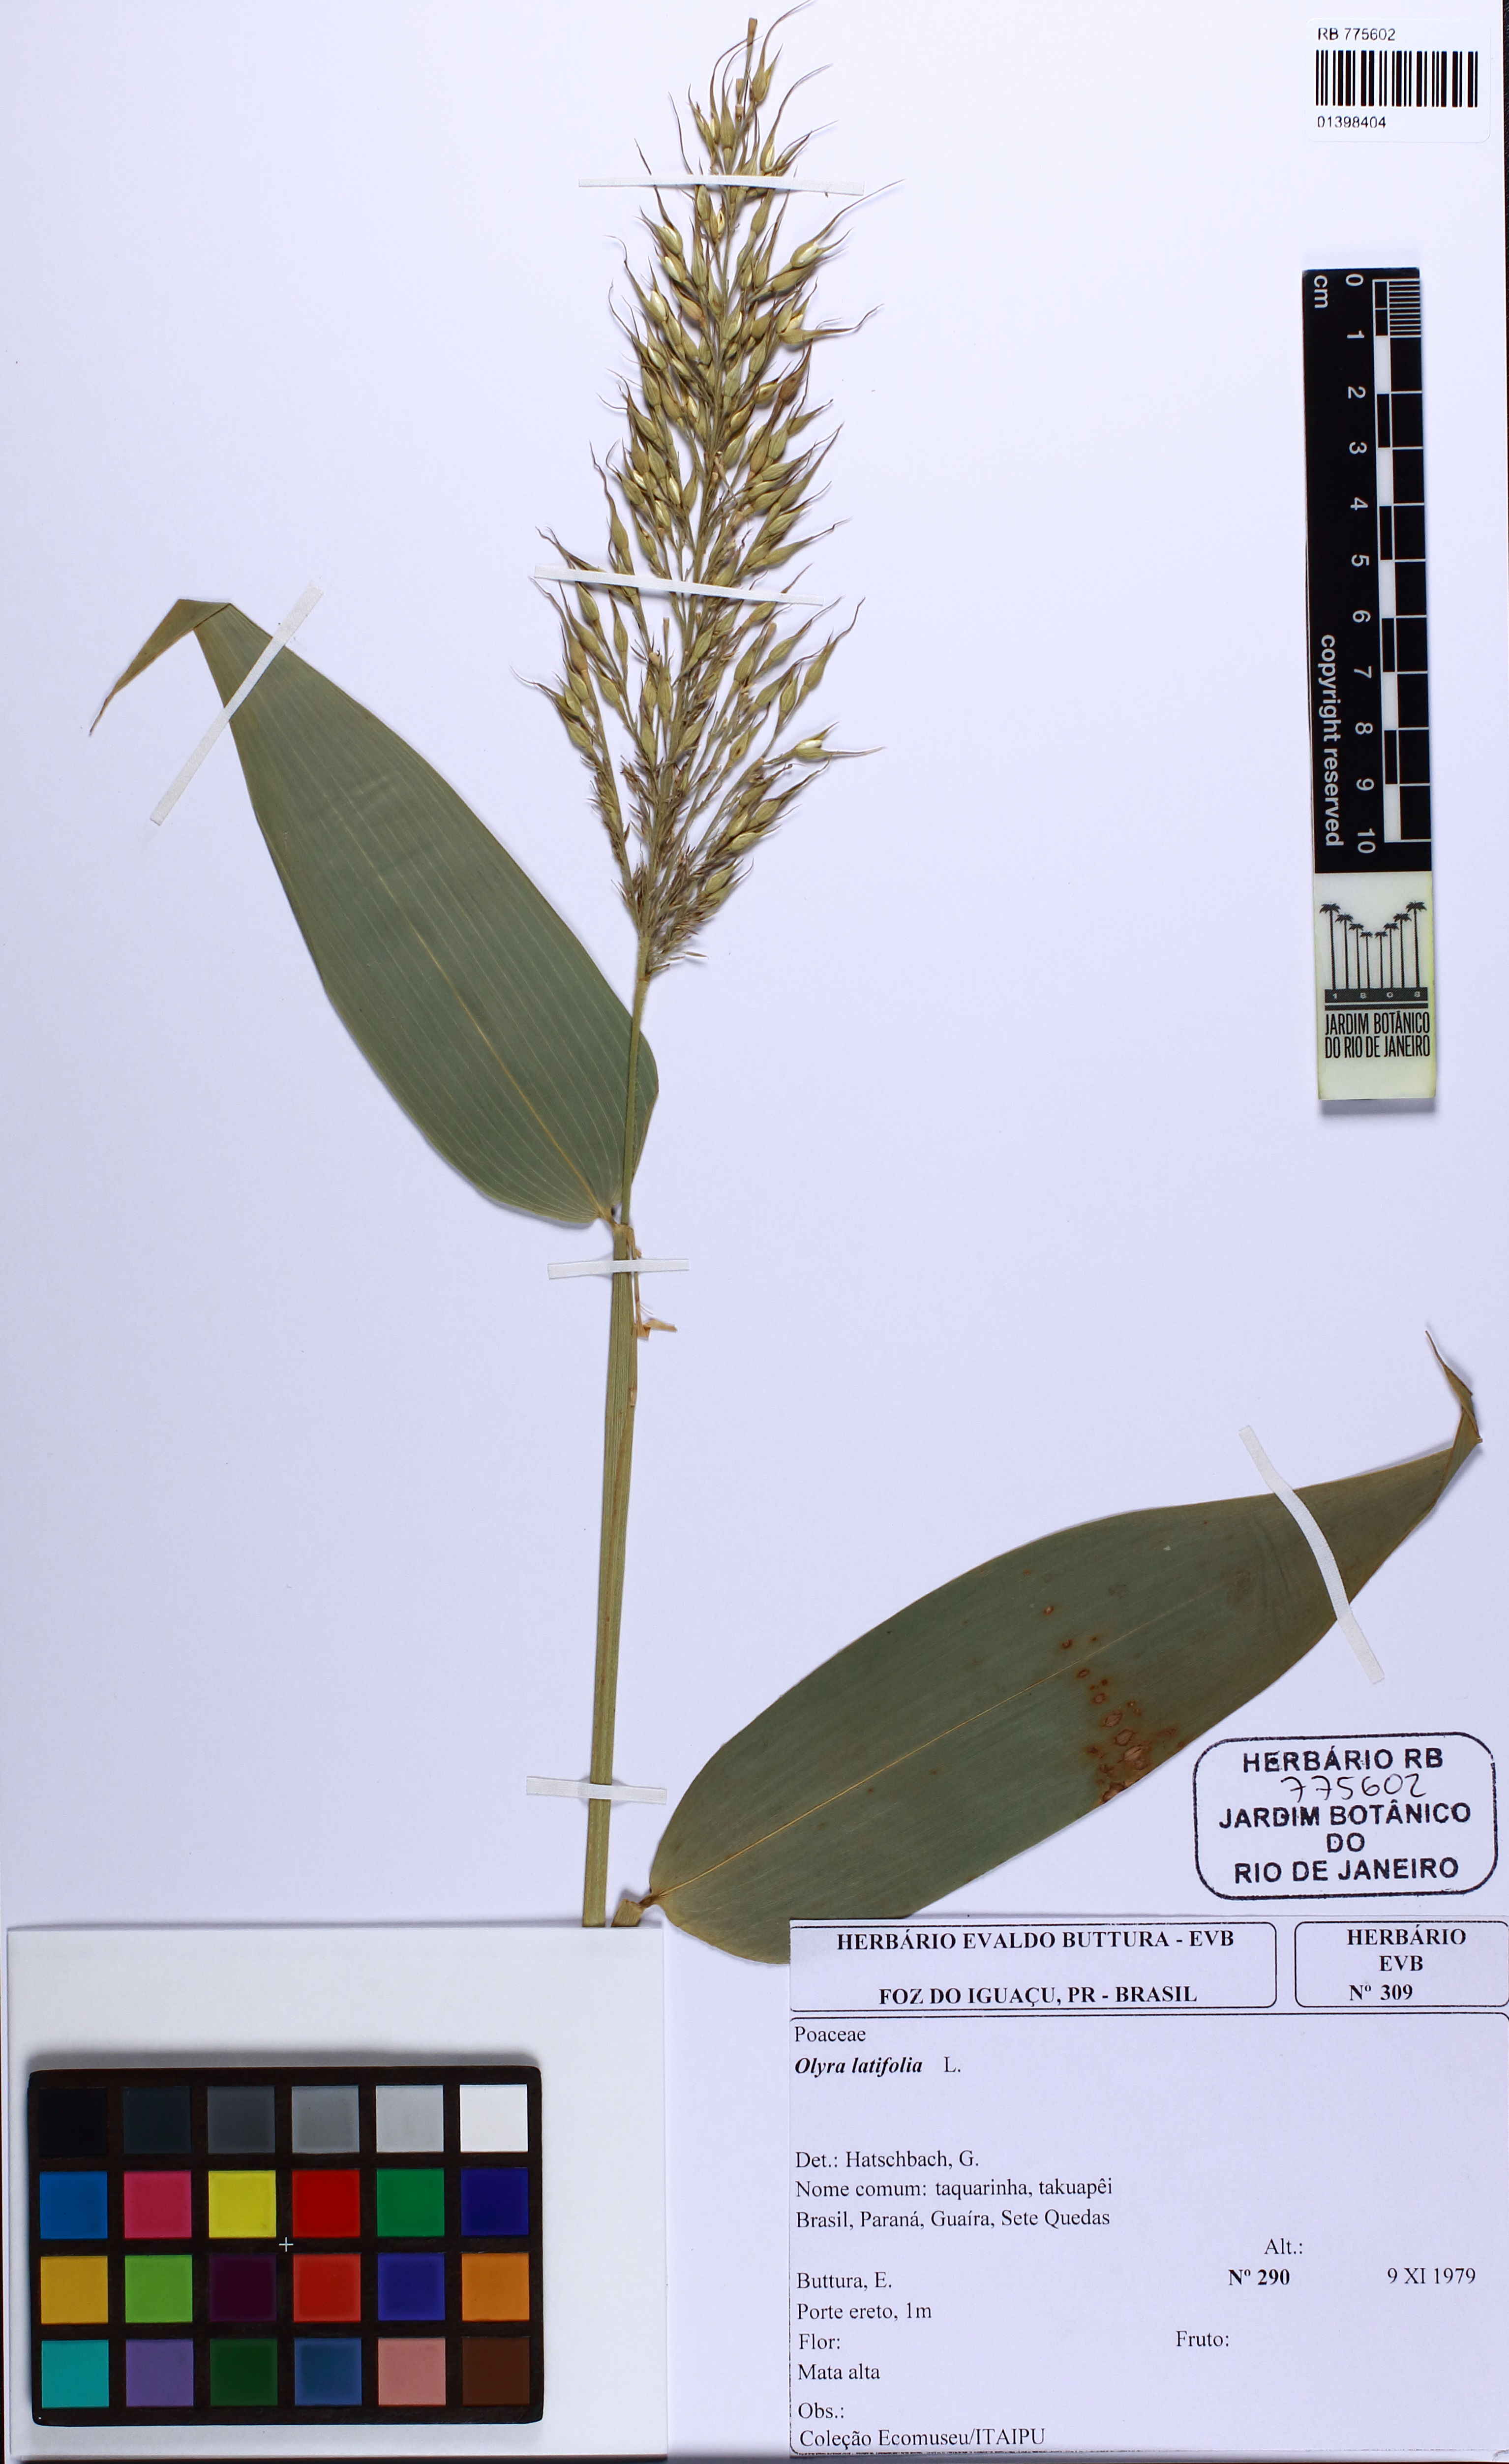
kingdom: Plantae
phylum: Tracheophyta
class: Liliopsida
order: Poales
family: Poaceae
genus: Olyra
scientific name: Olyra latifolia
